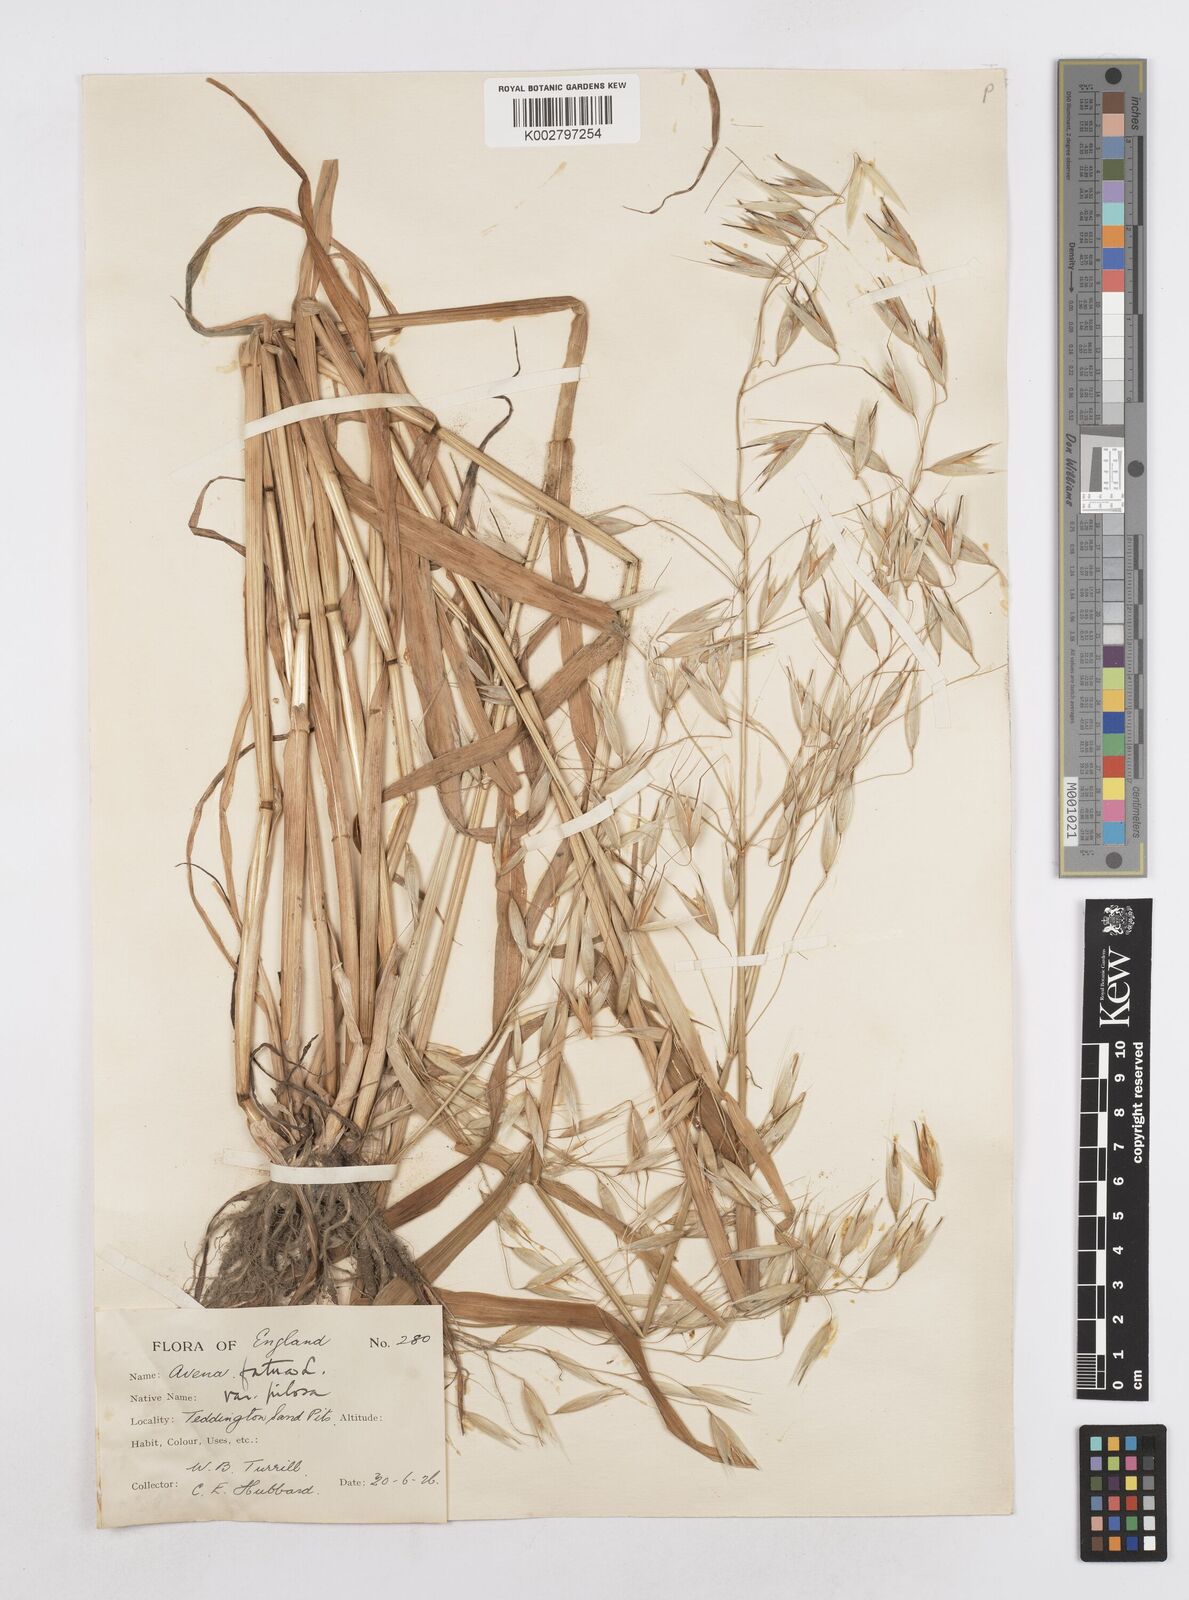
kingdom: Plantae
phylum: Tracheophyta
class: Liliopsida
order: Poales
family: Poaceae
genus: Avena
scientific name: Avena fatua
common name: Wild oat
